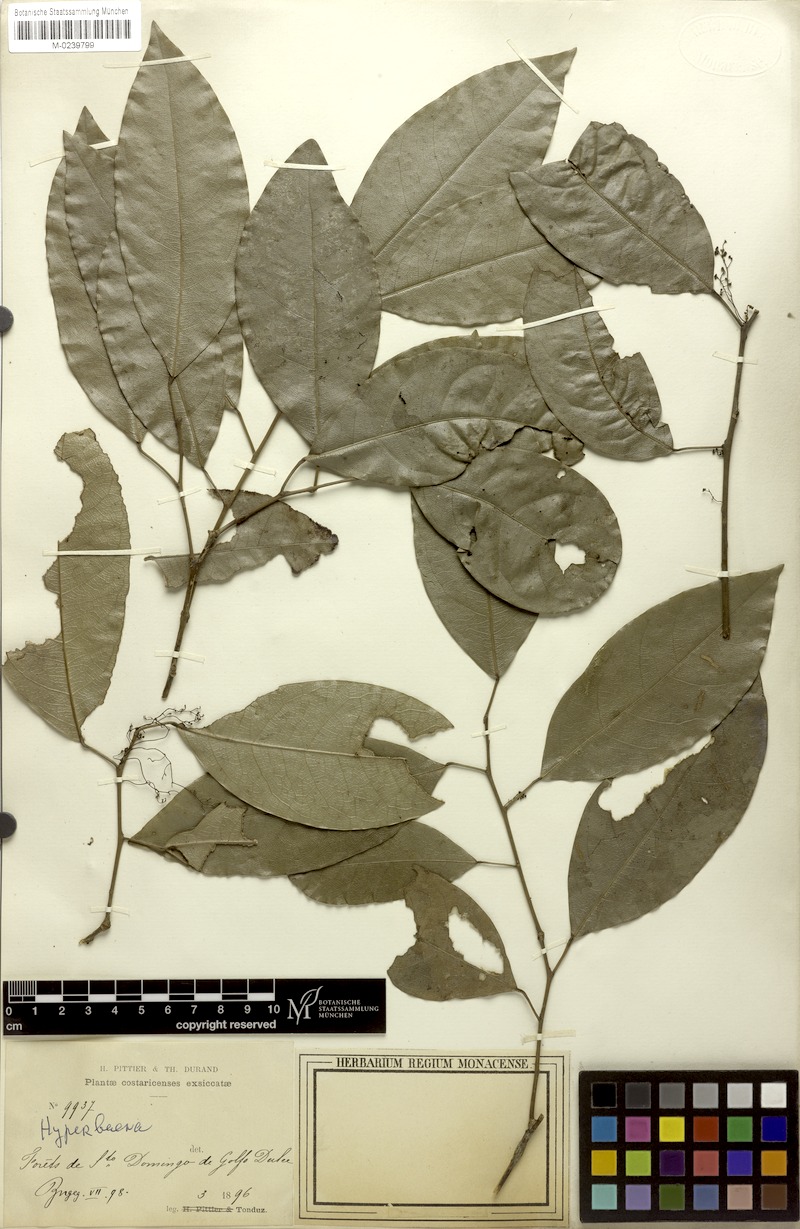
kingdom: Plantae
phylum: Tracheophyta
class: Magnoliopsida
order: Ranunculales
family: Menispermaceae
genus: Hyperbaena
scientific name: Hyperbaena leptobotryosa
